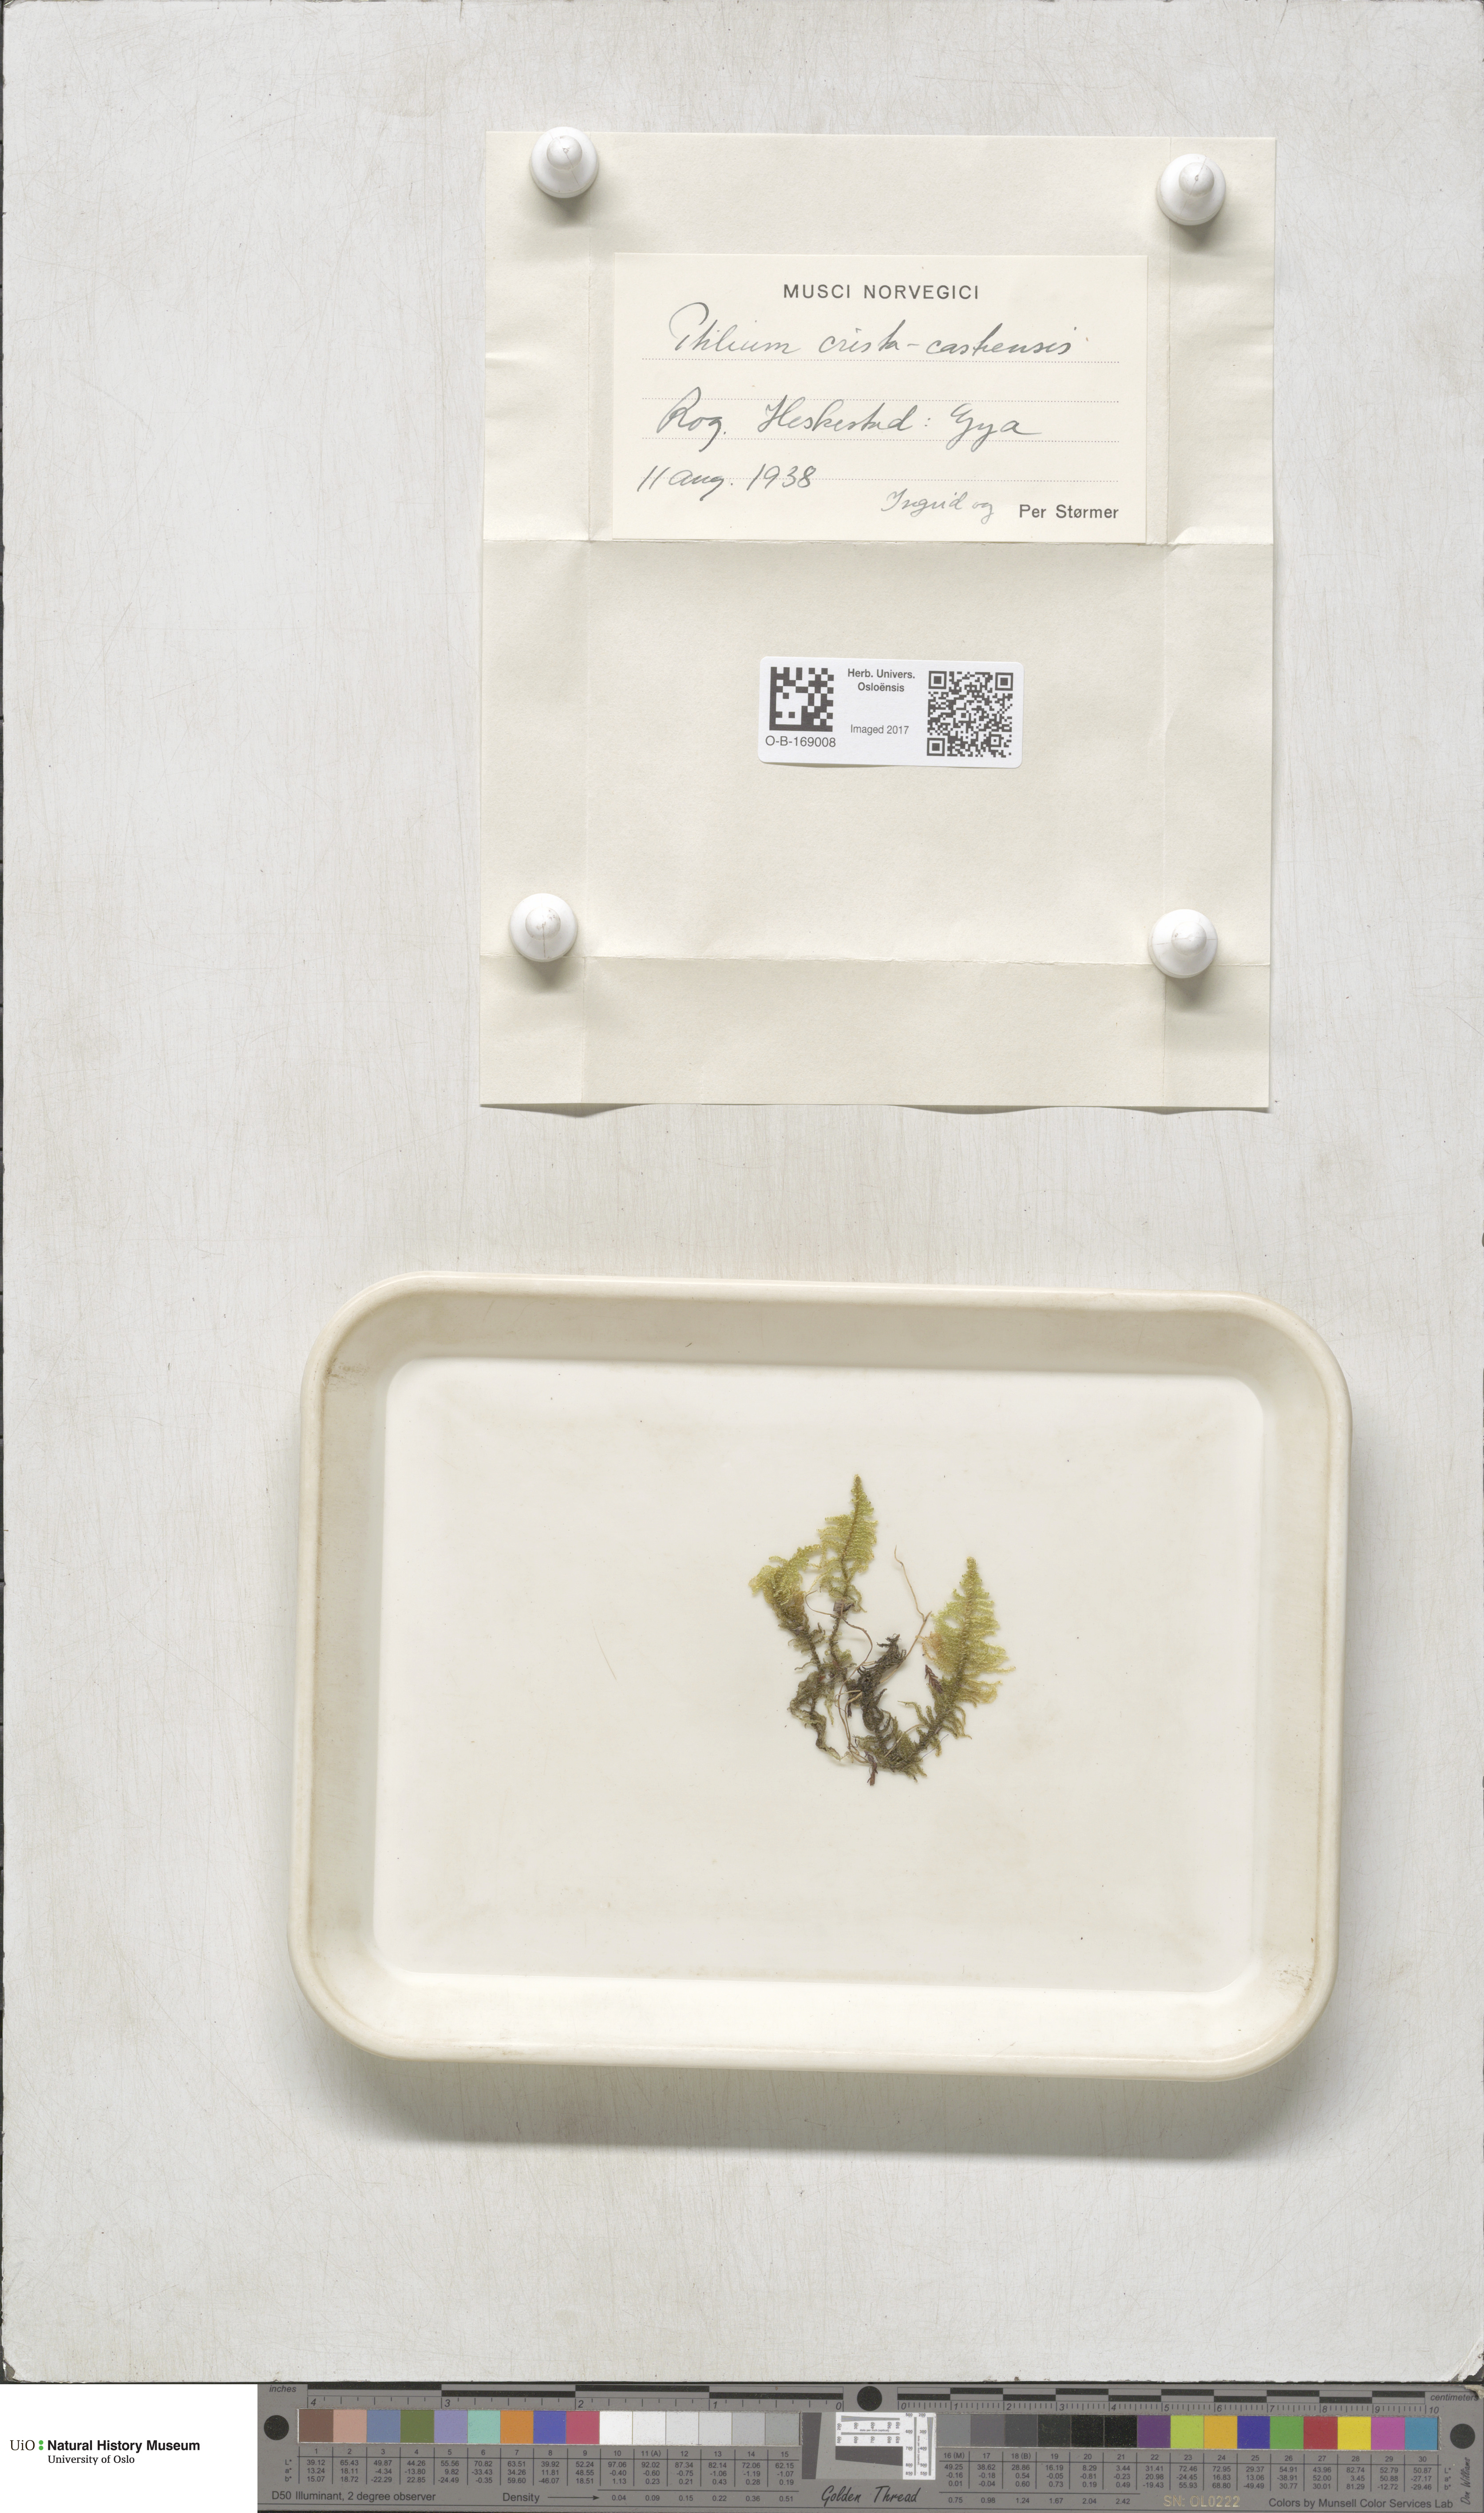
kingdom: Plantae
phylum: Bryophyta
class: Bryopsida
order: Hypnales
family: Pylaisiaceae
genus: Ptilium
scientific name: Ptilium crista-castrensis
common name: Knight's plume moss
